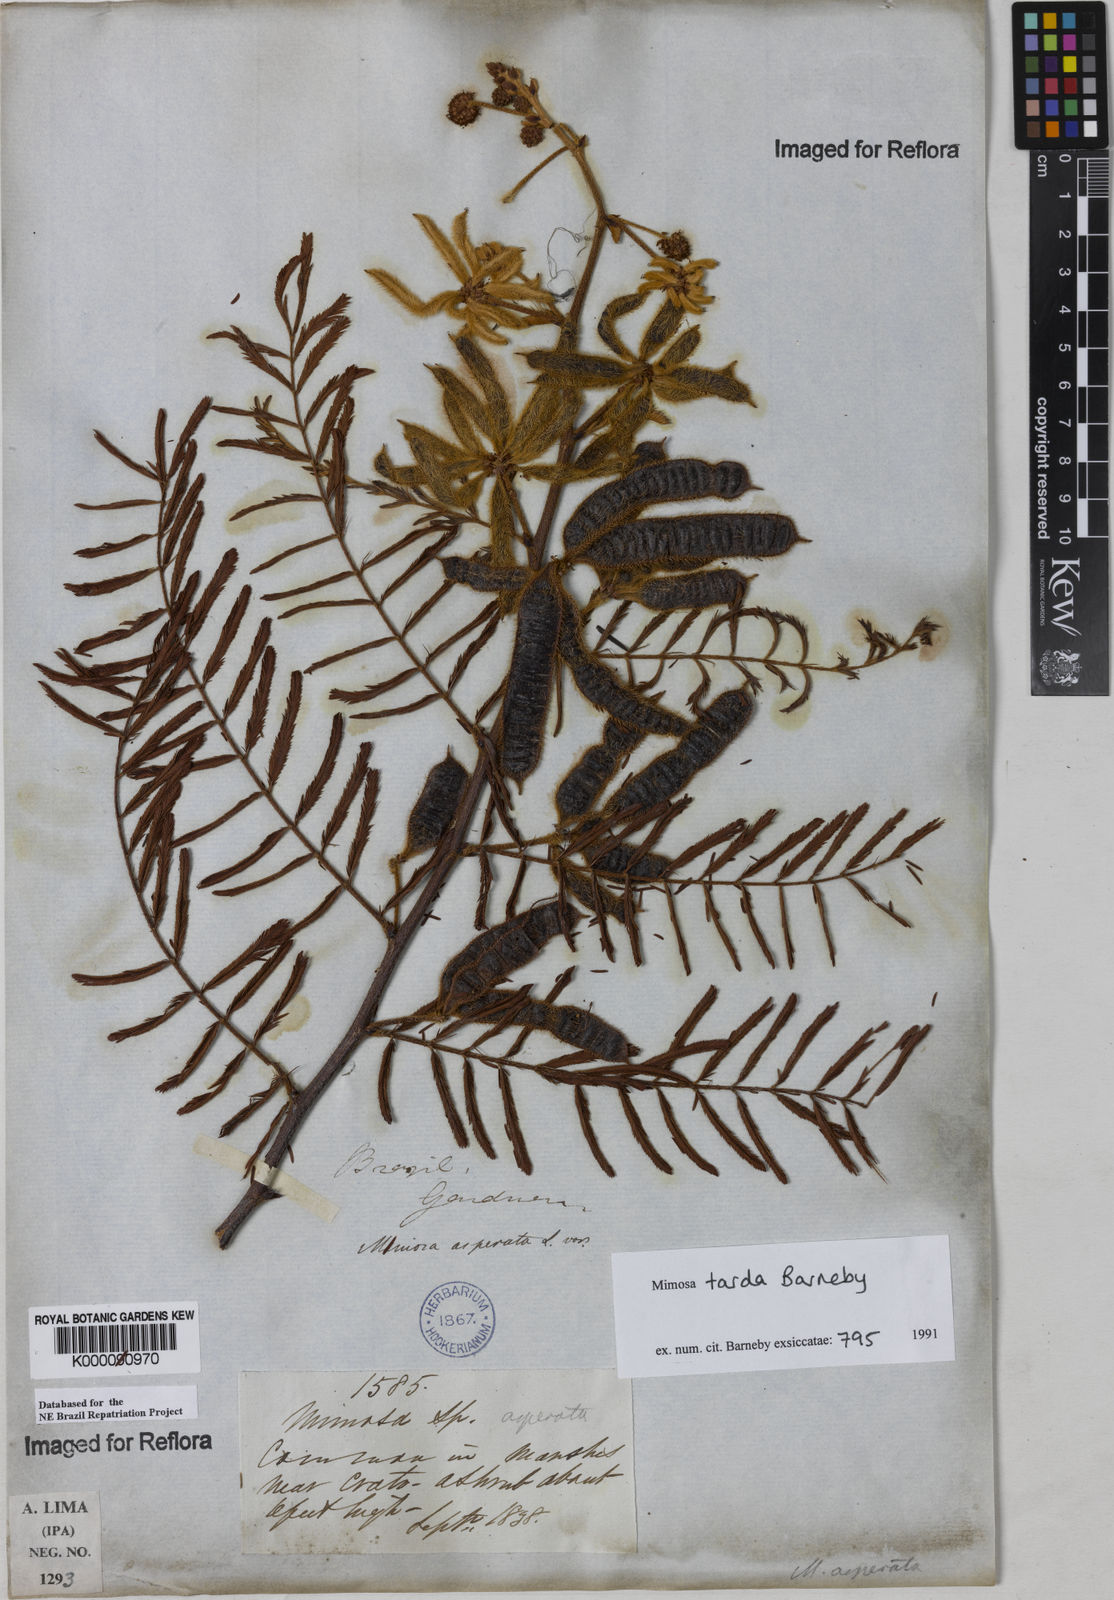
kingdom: Plantae
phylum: Tracheophyta
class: Magnoliopsida
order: Fabales
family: Fabaceae
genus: Mimosa
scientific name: Mimosa tarda
